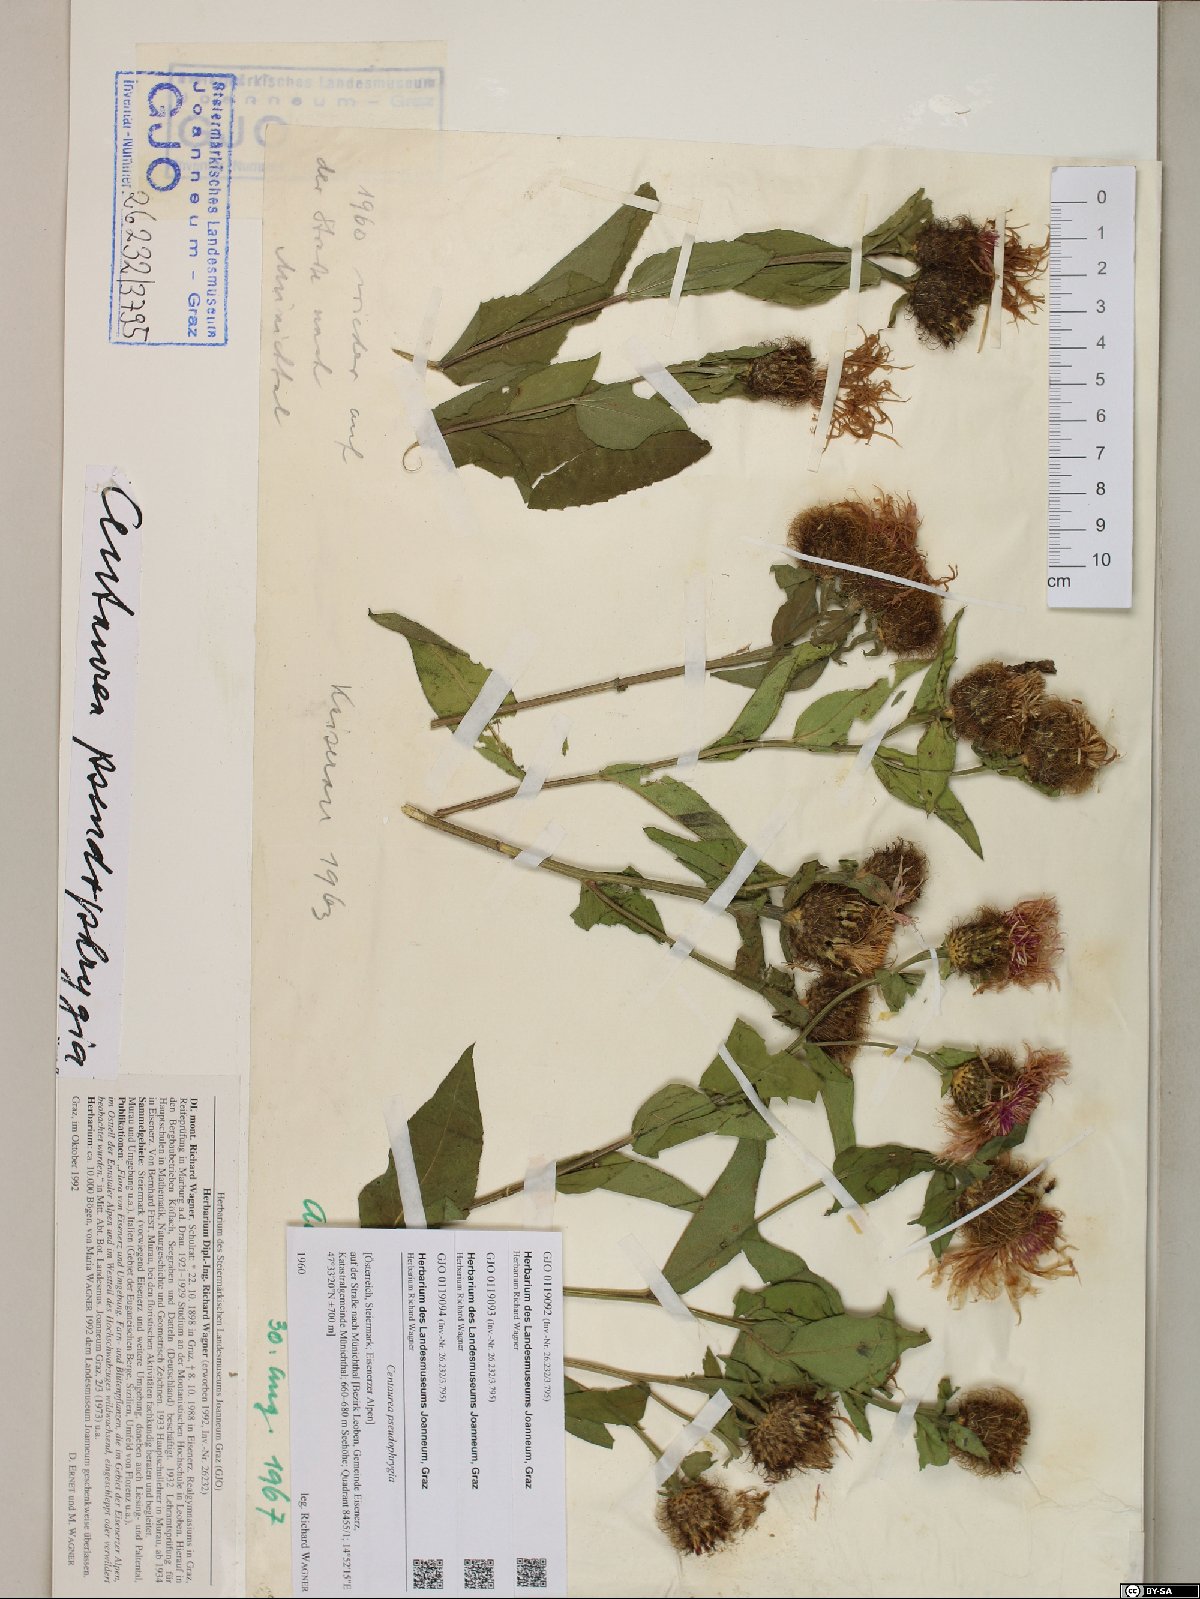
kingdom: Plantae
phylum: Tracheophyta
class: Magnoliopsida
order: Asterales
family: Asteraceae
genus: Centaurea
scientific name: Centaurea pseudophrygia
